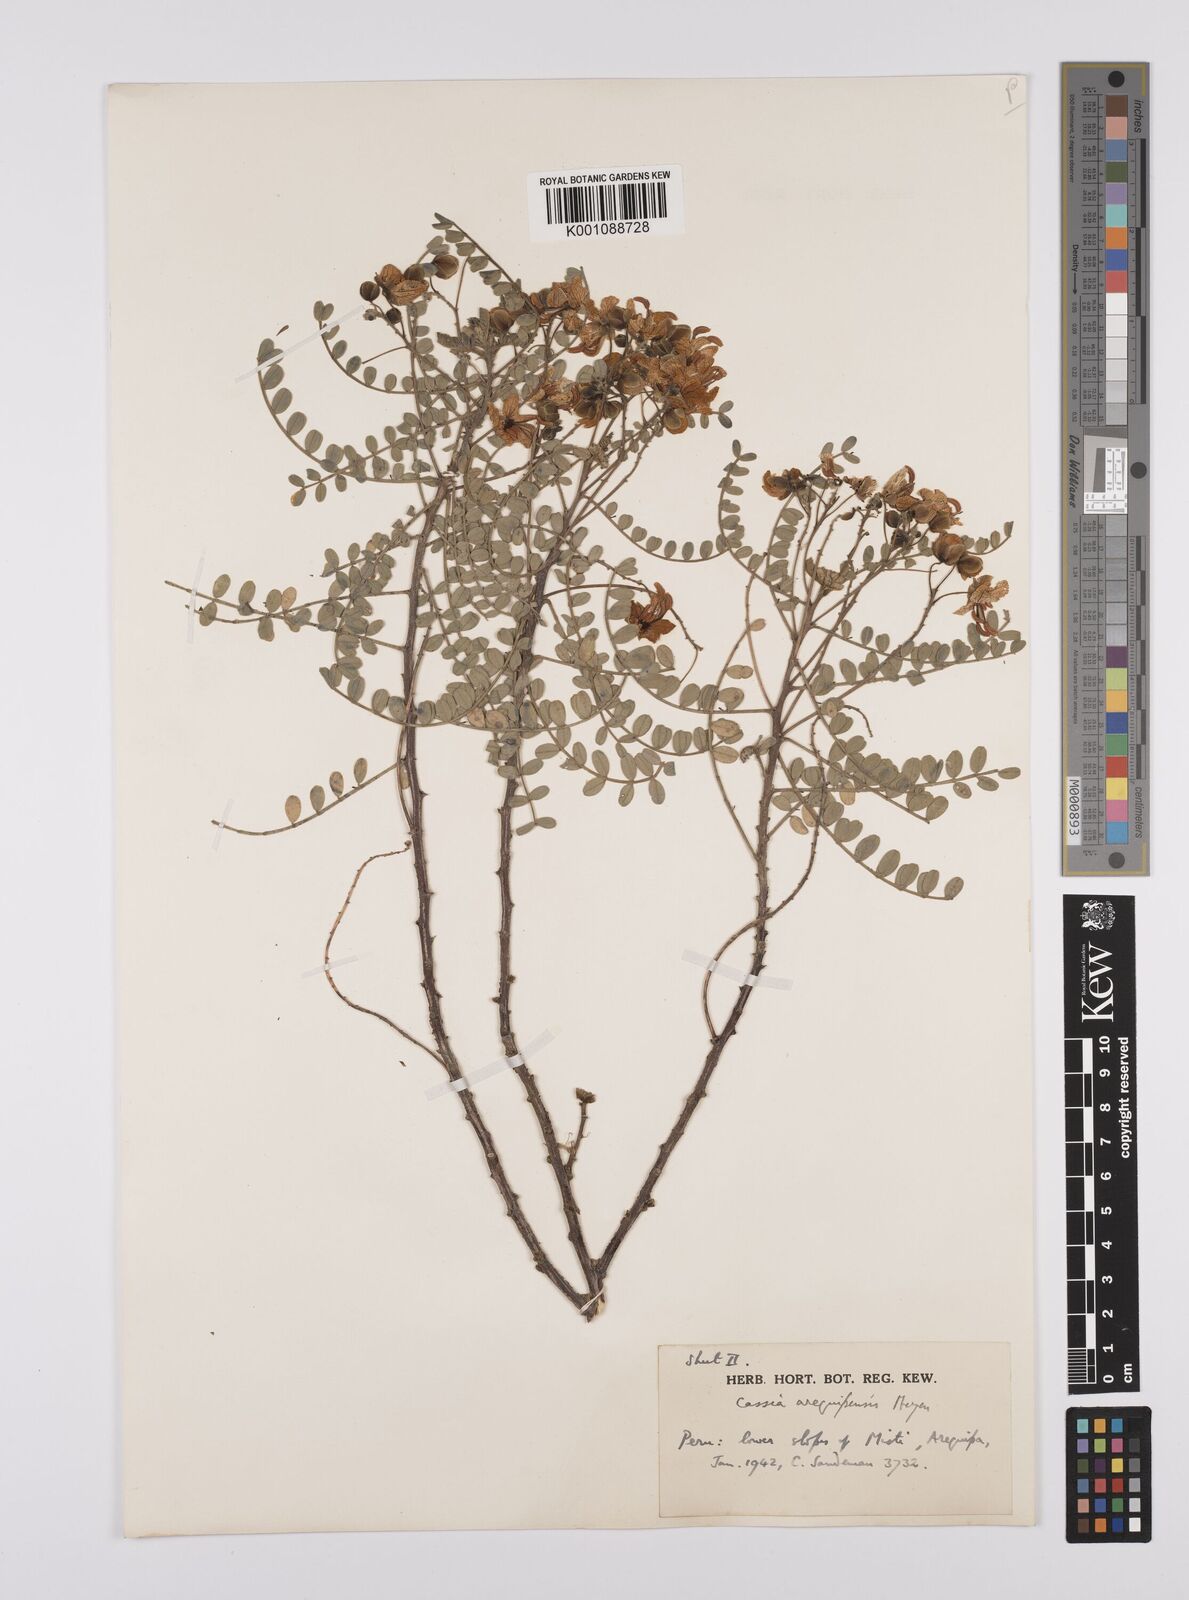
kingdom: Plantae
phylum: Tracheophyta
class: Magnoliopsida
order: Fabales
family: Fabaceae
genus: Senna
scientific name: Senna birostris
